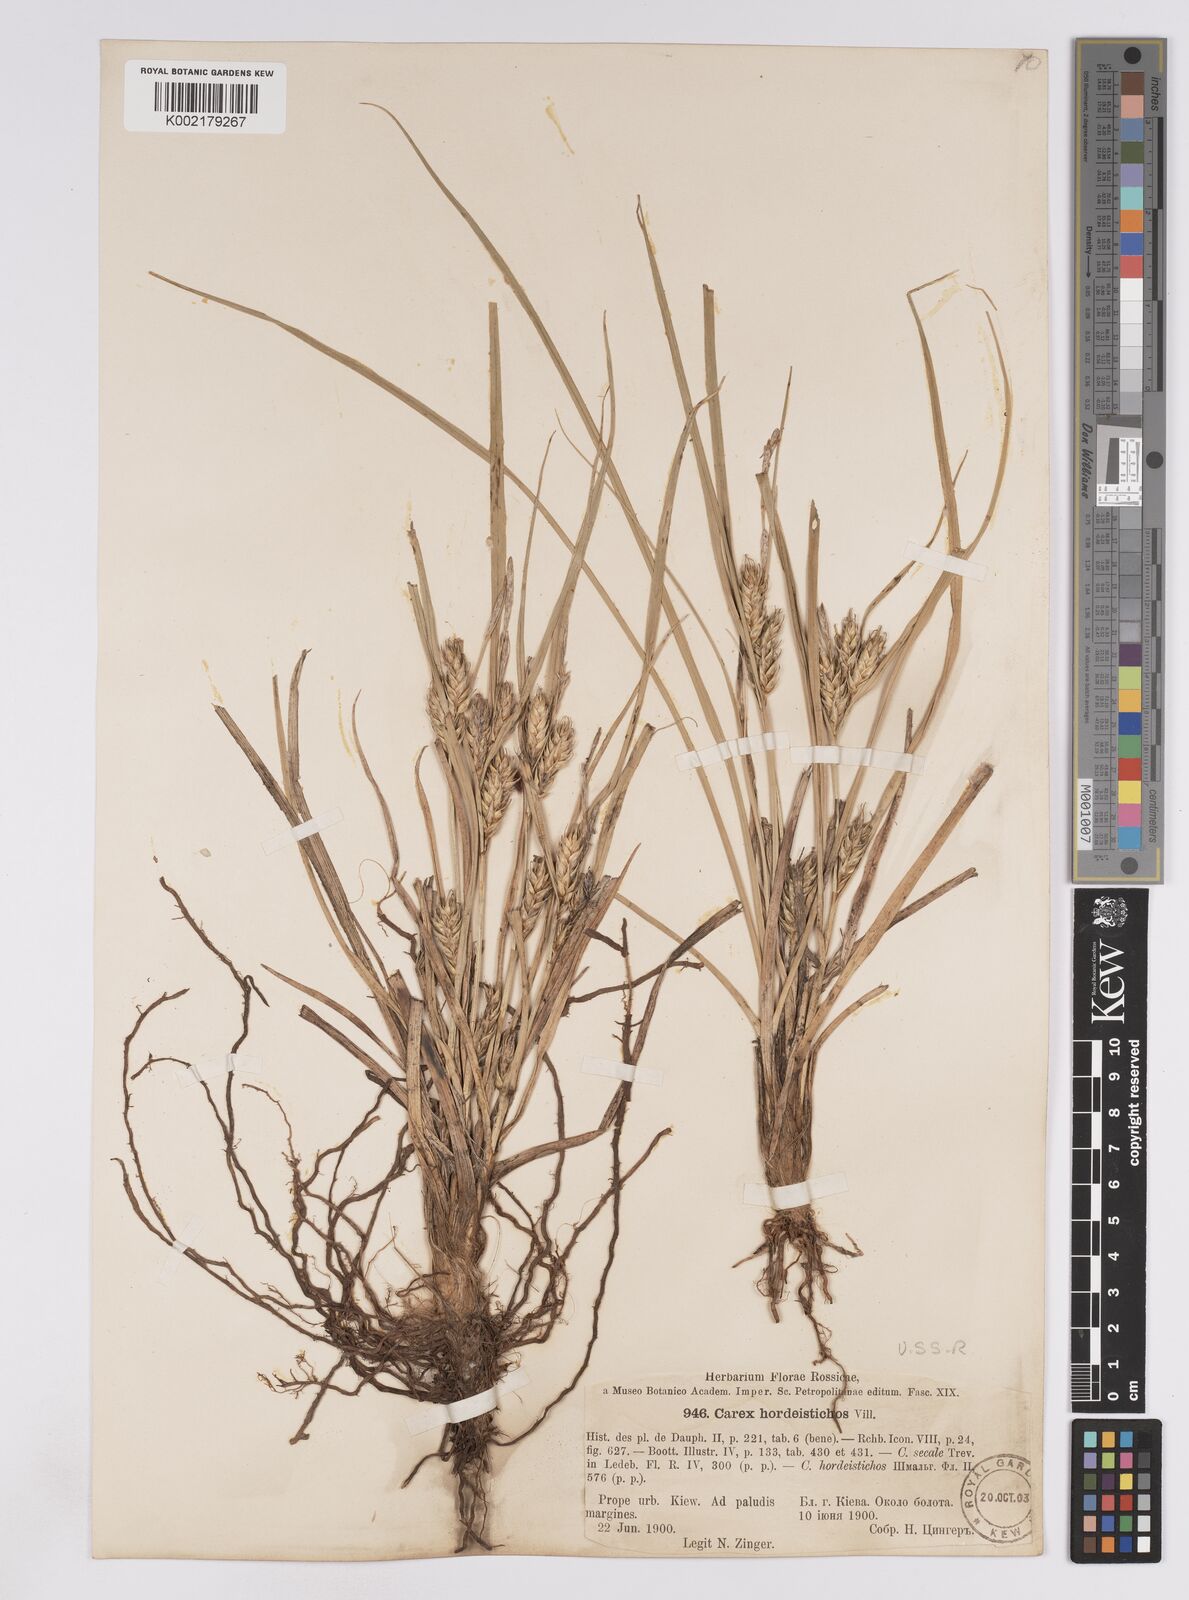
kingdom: Plantae
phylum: Tracheophyta
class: Liliopsida
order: Poales
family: Cyperaceae
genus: Carex
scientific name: Carex hordeistichos
